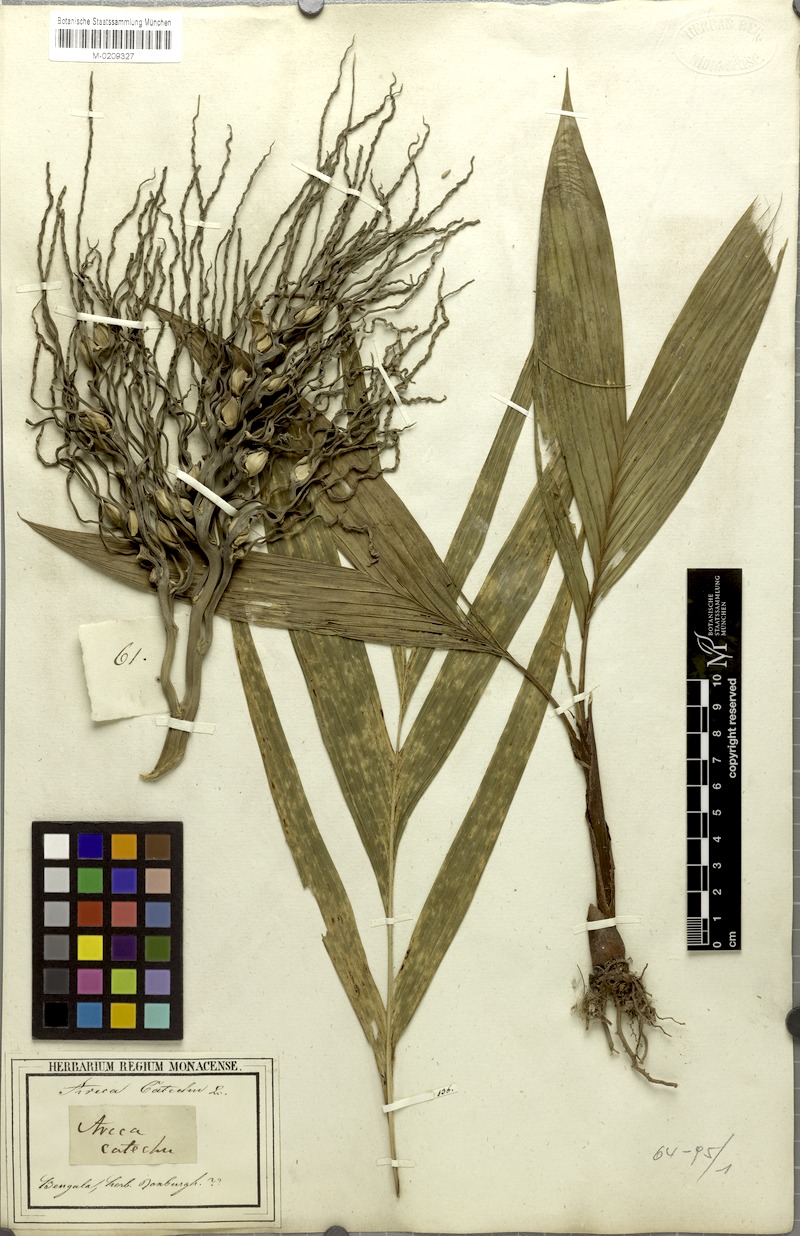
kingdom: Plantae
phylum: Tracheophyta
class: Liliopsida
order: Arecales
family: Arecaceae
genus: Areca
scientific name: Areca catechu
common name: Indian-nut
